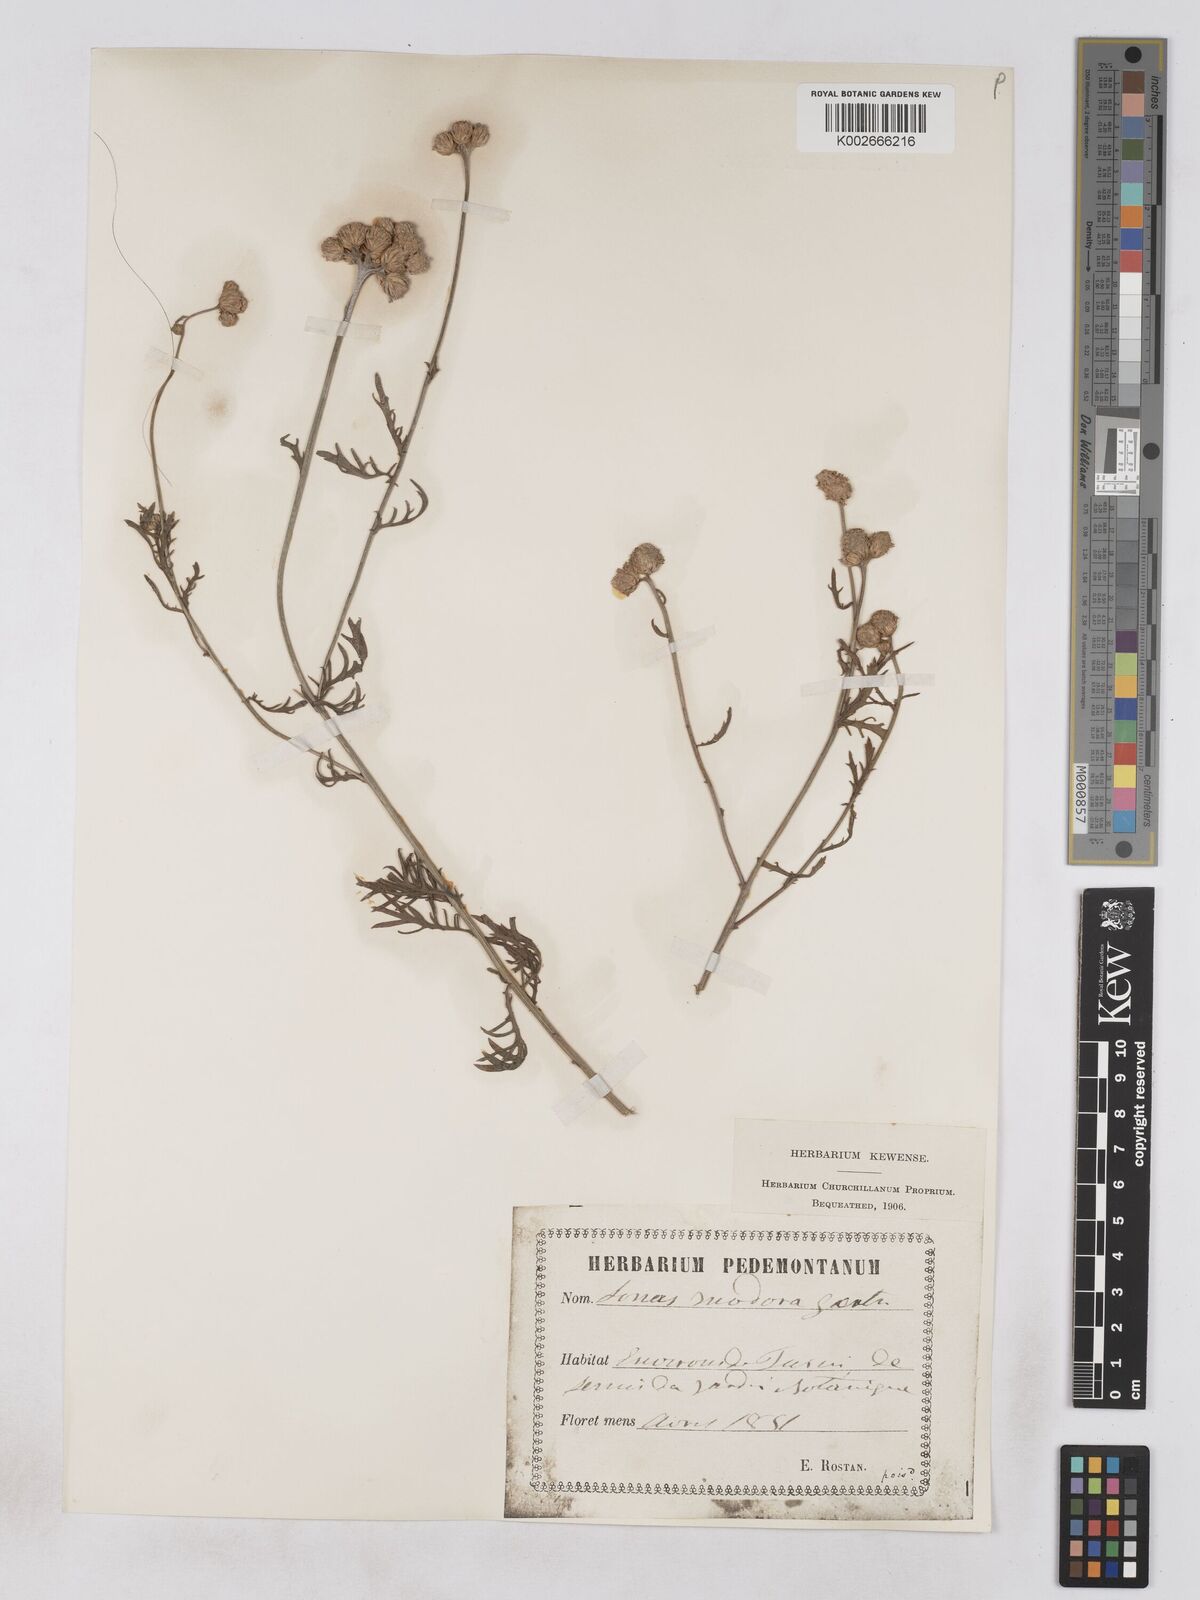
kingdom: Plantae
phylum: Tracheophyta
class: Magnoliopsida
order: Asterales
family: Asteraceae
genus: Lonas
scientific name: Lonas
